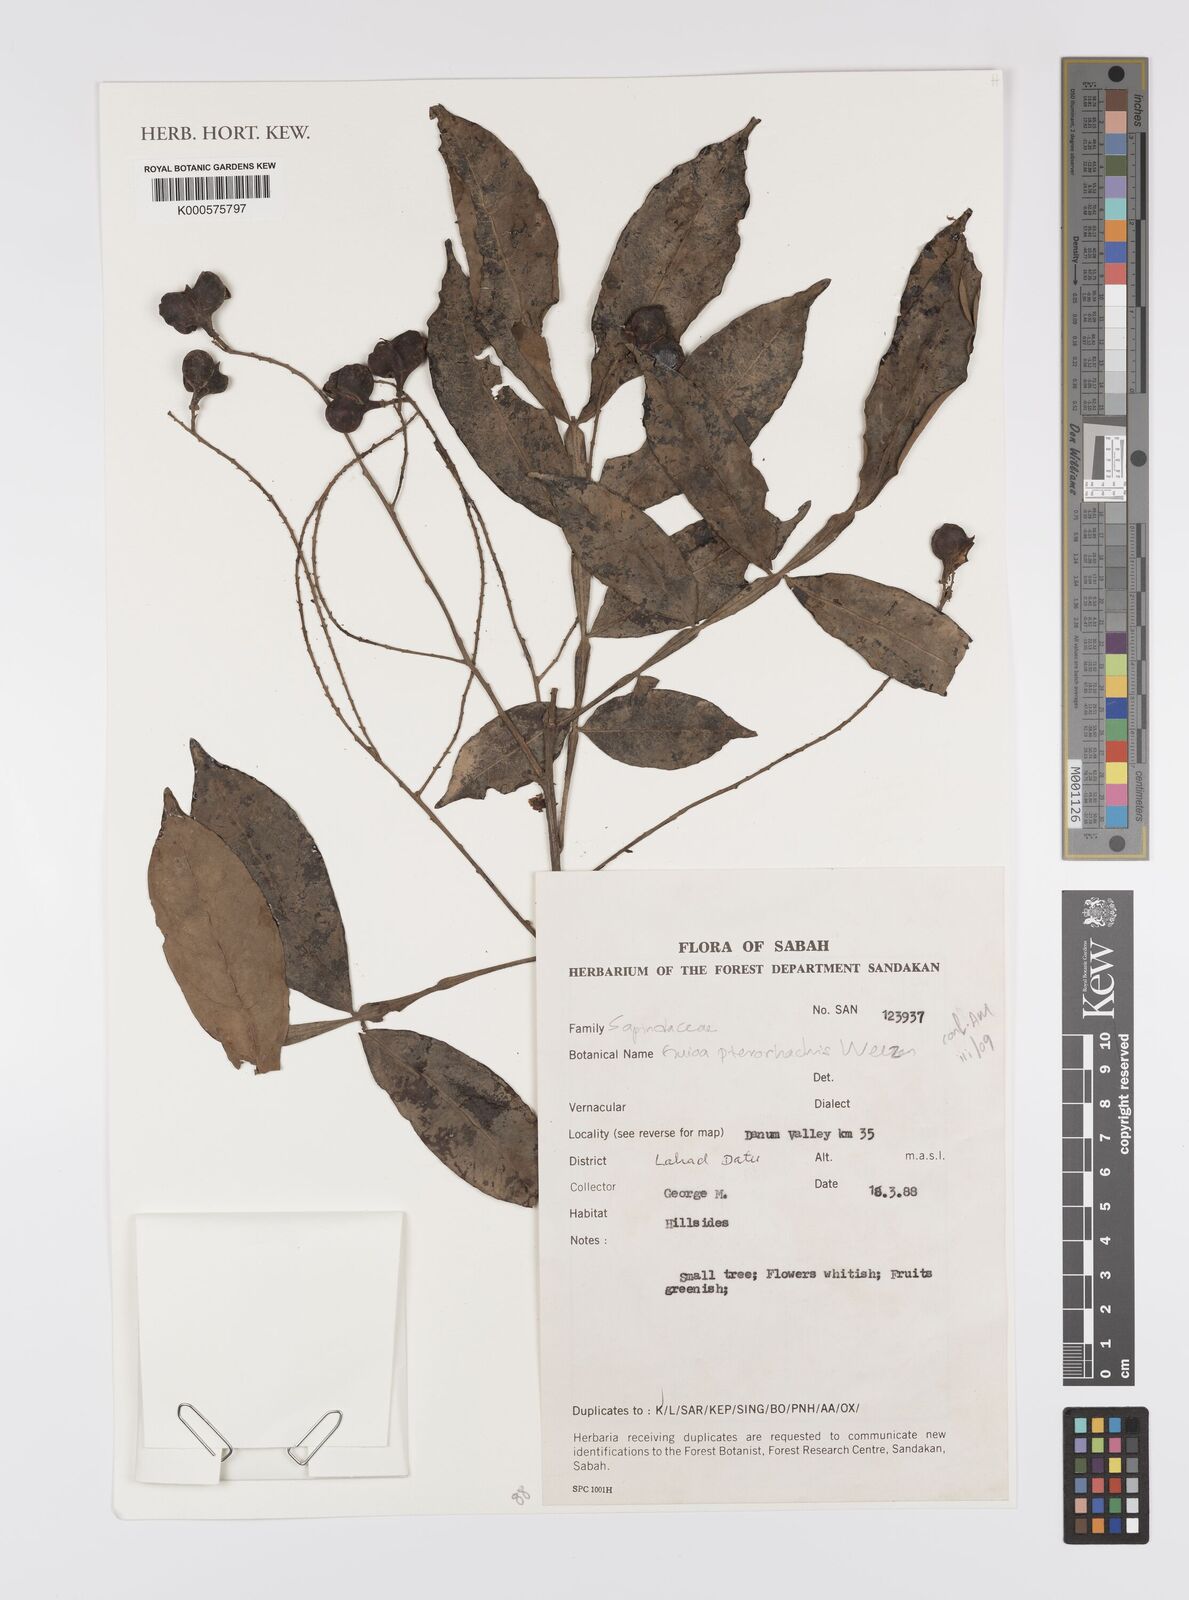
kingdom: Plantae
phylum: Tracheophyta
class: Magnoliopsida
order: Sapindales
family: Sapindaceae
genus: Guioa
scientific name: Guioa pterorhachis
